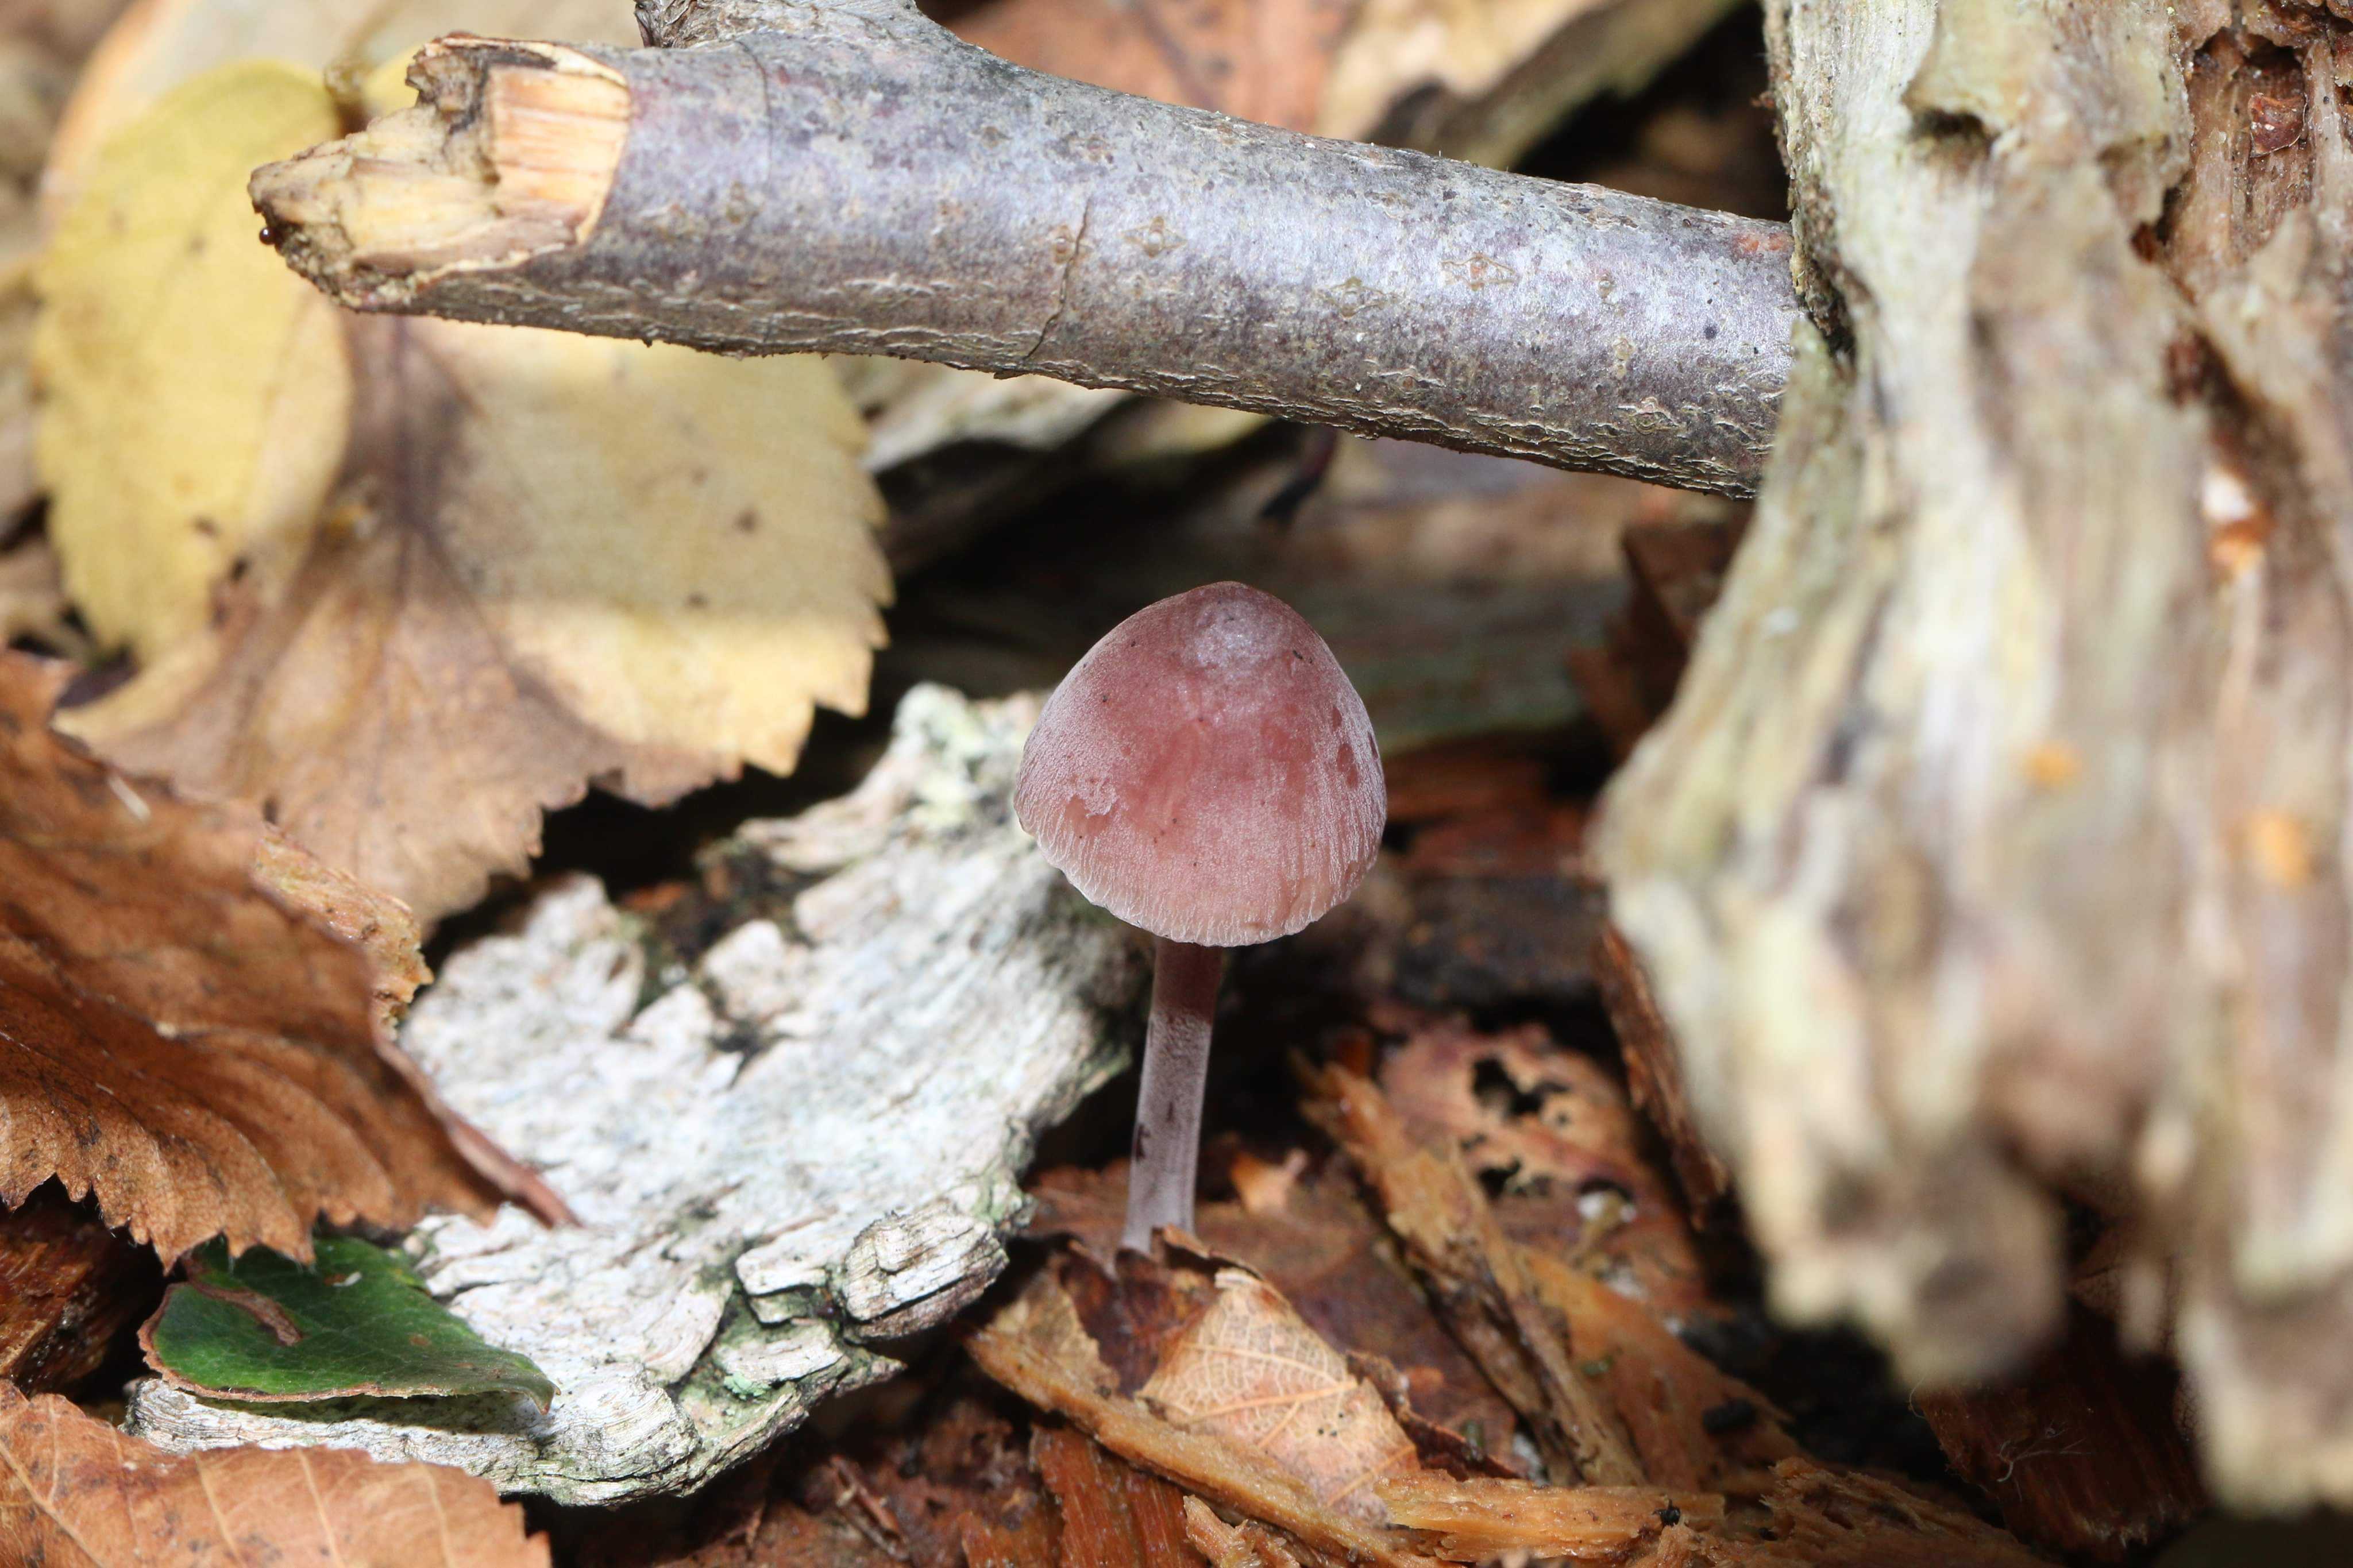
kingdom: Fungi
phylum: Basidiomycota
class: Agaricomycetes
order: Agaricales
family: Mycenaceae
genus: Mycena
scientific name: Mycena haematopus
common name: blødende huesvamp
